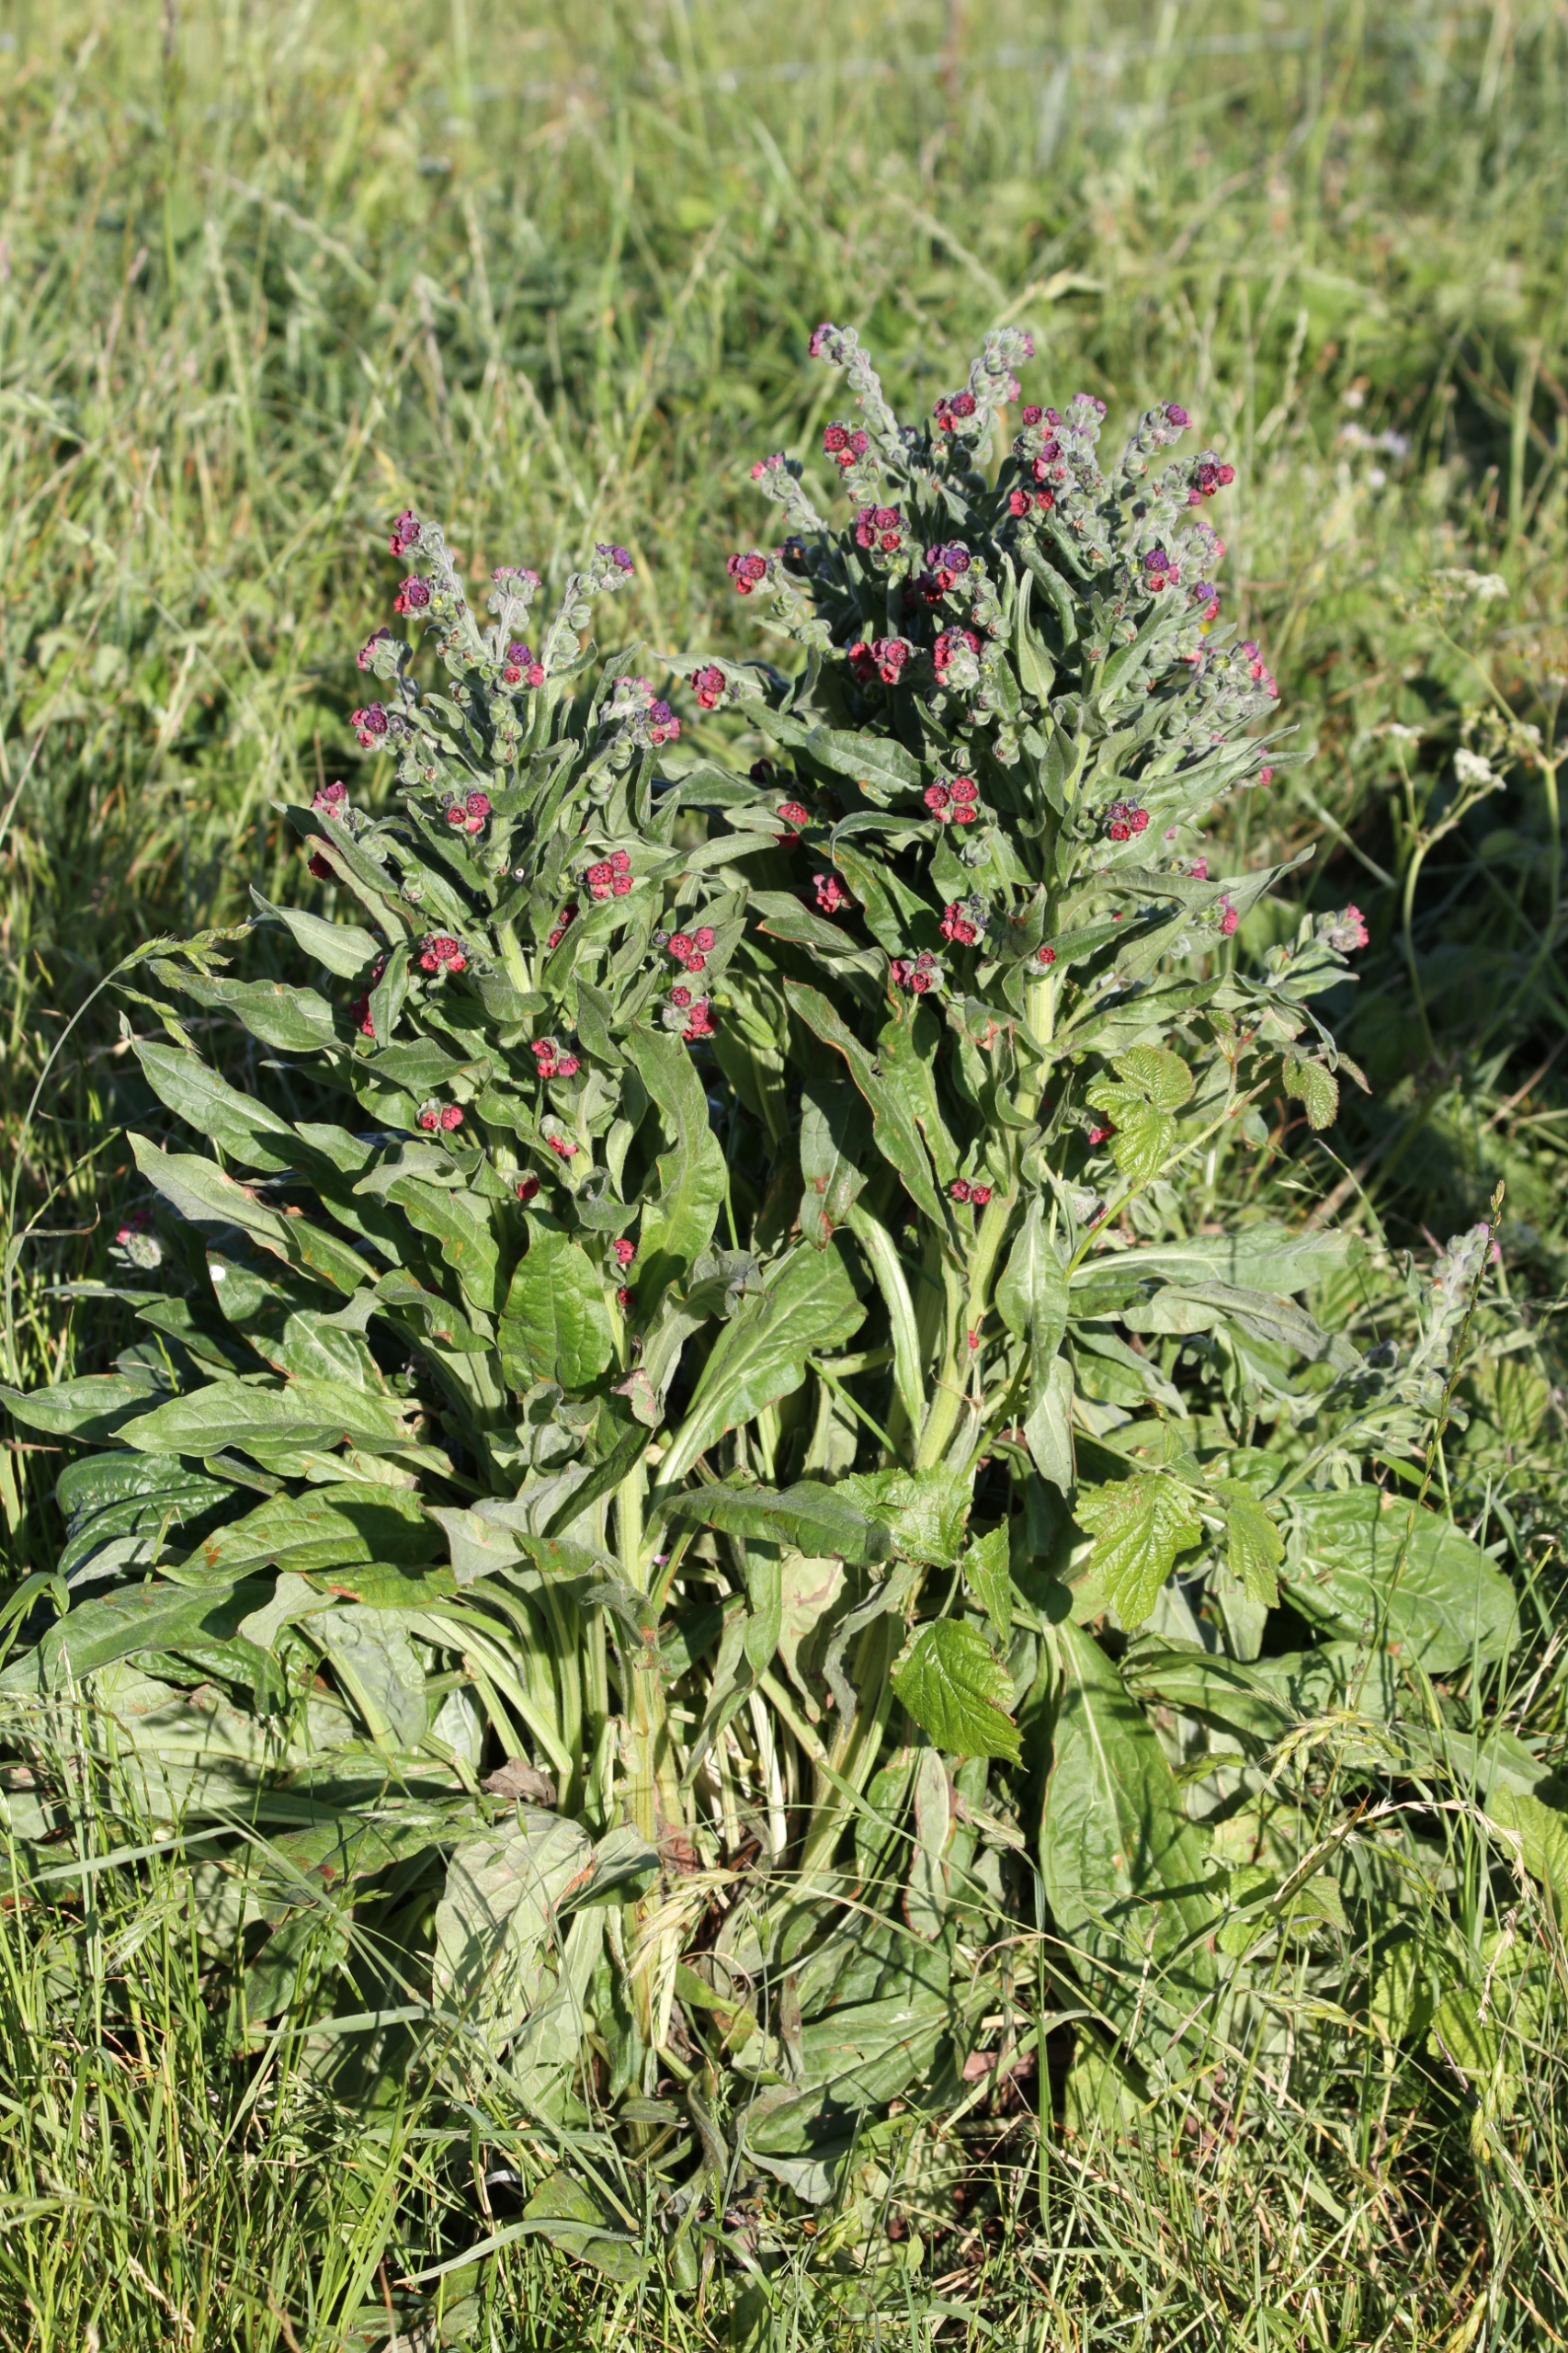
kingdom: Plantae
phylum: Tracheophyta
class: Magnoliopsida
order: Boraginales
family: Boraginaceae
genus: Cynoglossum
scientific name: Cynoglossum officinale
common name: Hundetunge
